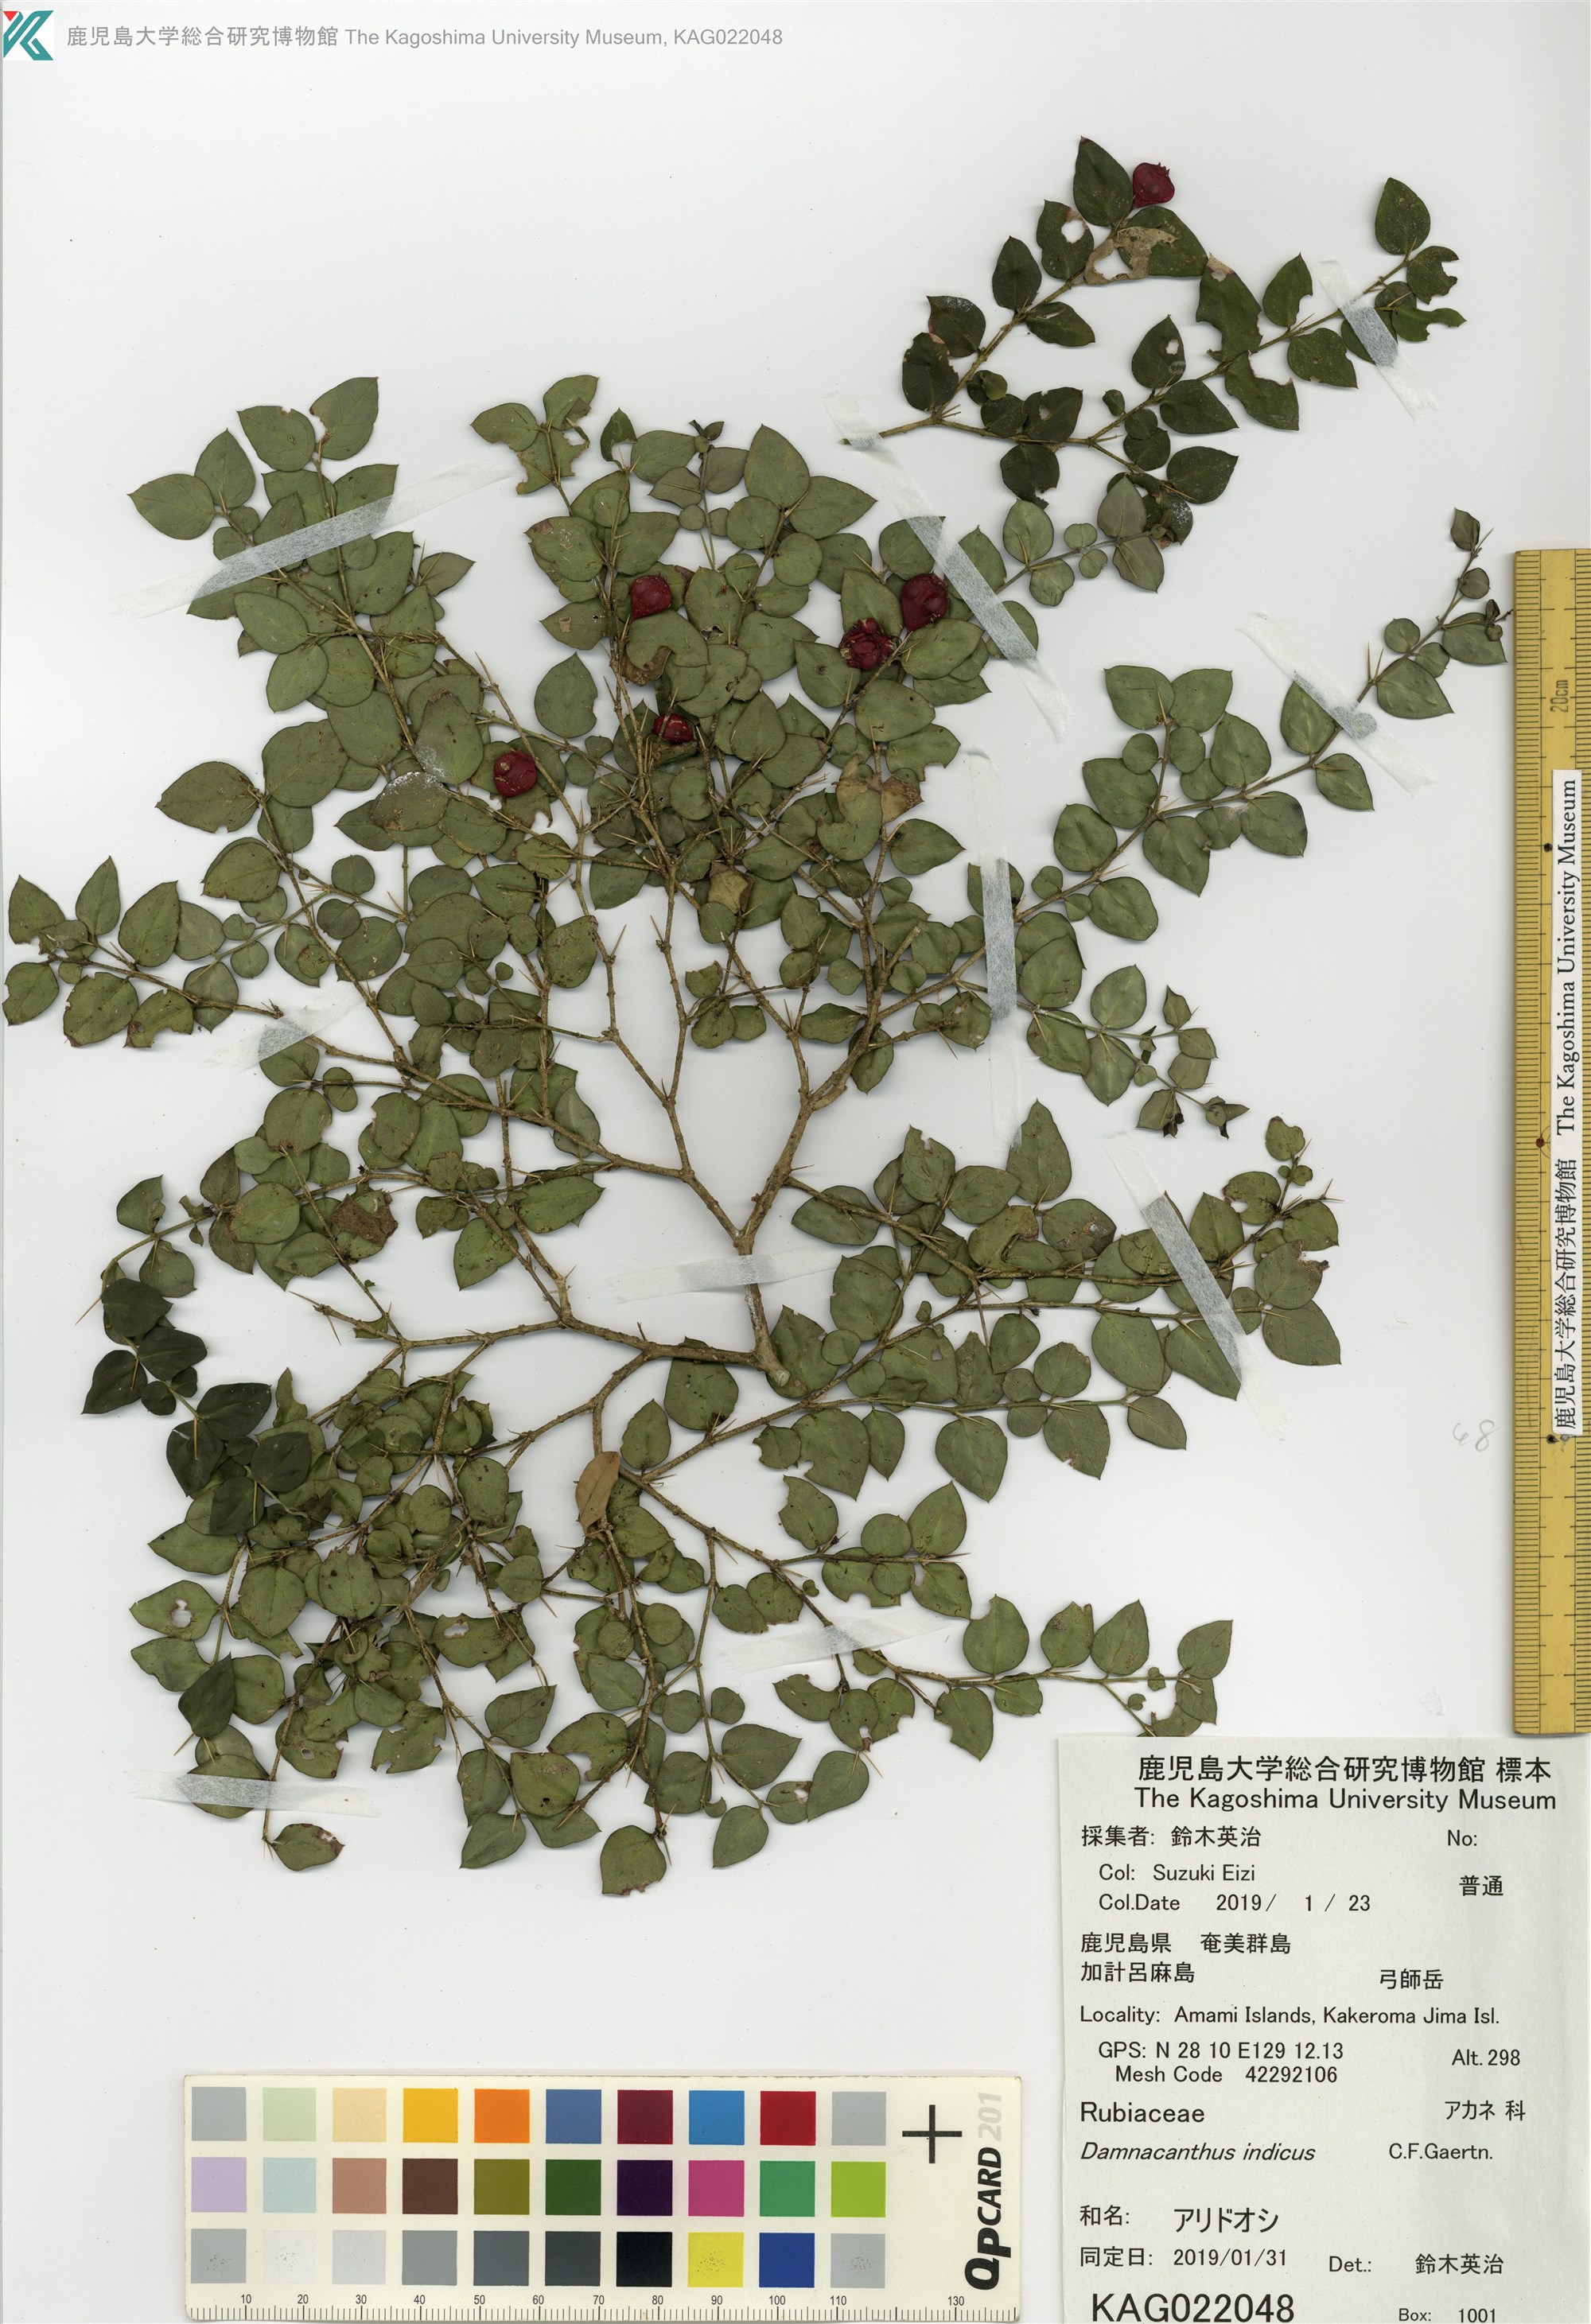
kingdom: Plantae
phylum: Tracheophyta
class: Magnoliopsida
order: Gentianales
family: Rubiaceae
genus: Damnacanthus
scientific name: Damnacanthus indicus
